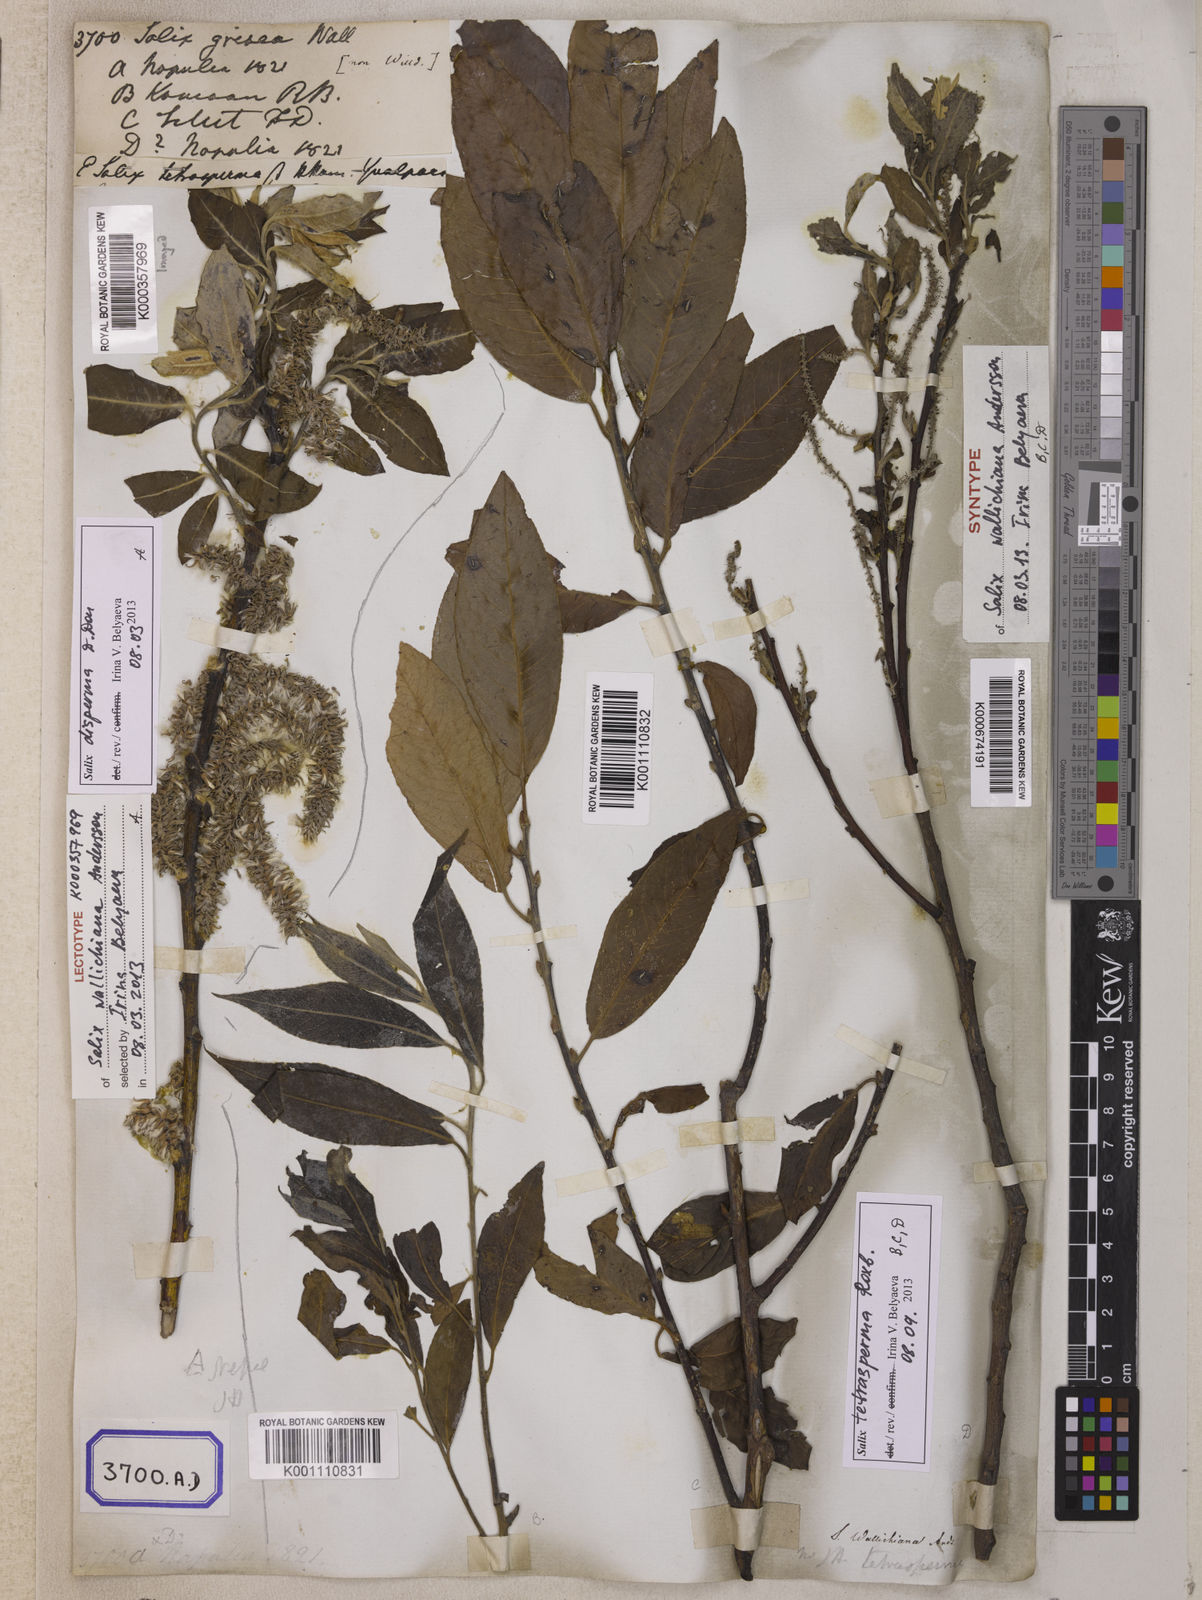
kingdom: Plantae
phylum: Tracheophyta
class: Magnoliopsida
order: Malpighiales
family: Salicaceae
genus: Salix
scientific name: Salix disperma
